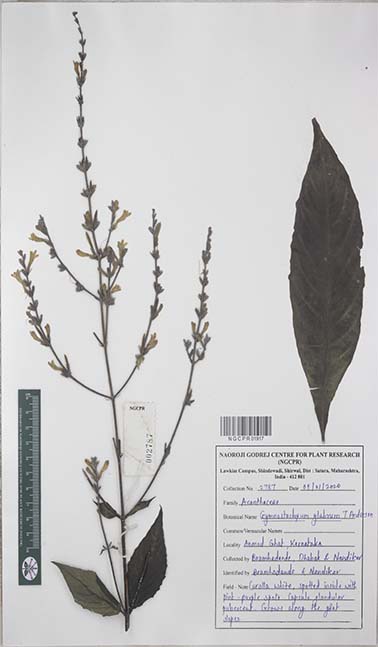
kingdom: Plantae
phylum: Tracheophyta
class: Magnoliopsida
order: Lamiales
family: Acanthaceae
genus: Gymnostachyum
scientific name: Gymnostachyum glabrum
